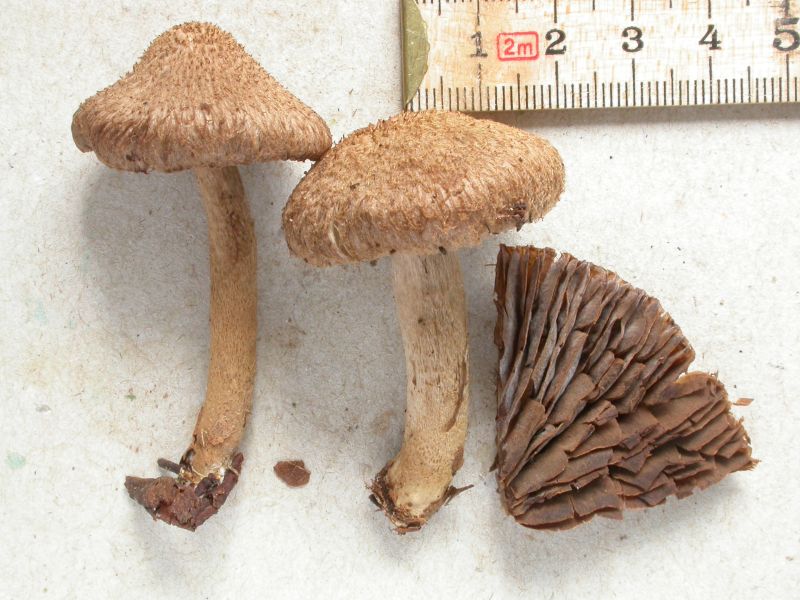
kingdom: Fungi
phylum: Basidiomycota
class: Agaricomycetes
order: Agaricales
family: Inocybaceae
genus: Inocybe
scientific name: Inocybe stellatospora
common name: spidsskællet trævlhat
